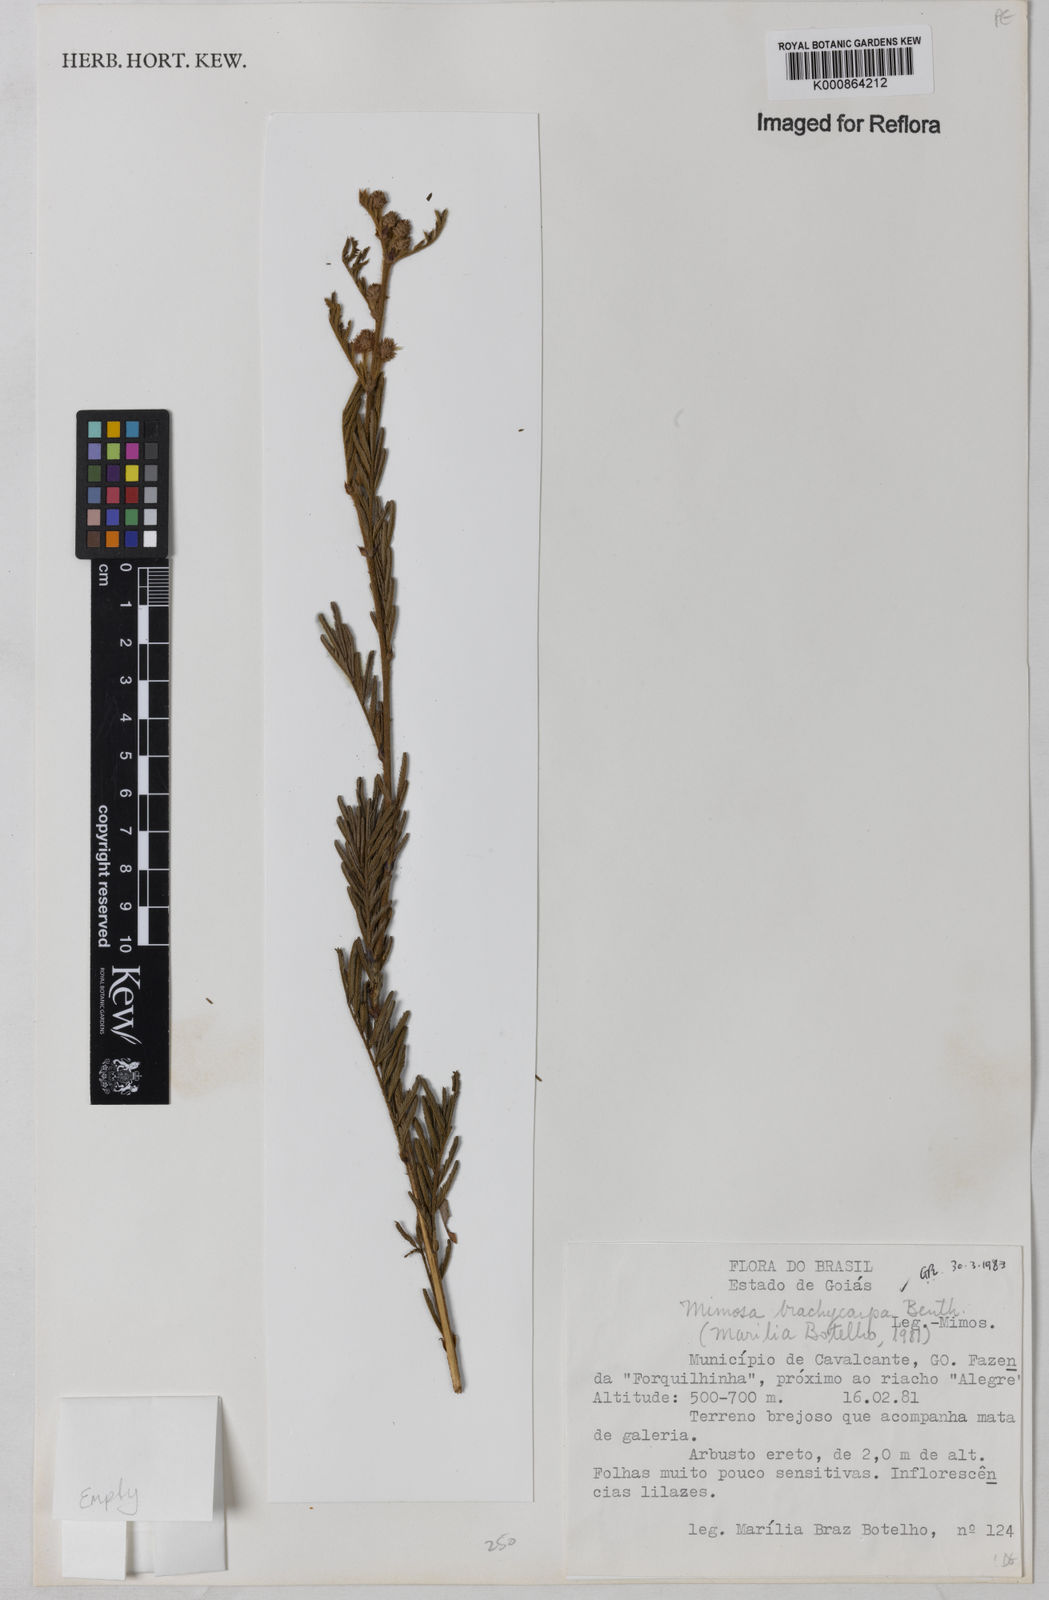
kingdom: Plantae
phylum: Tracheophyta
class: Magnoliopsida
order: Fabales
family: Fabaceae
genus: Mimosa
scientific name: Mimosa brachycarpa
